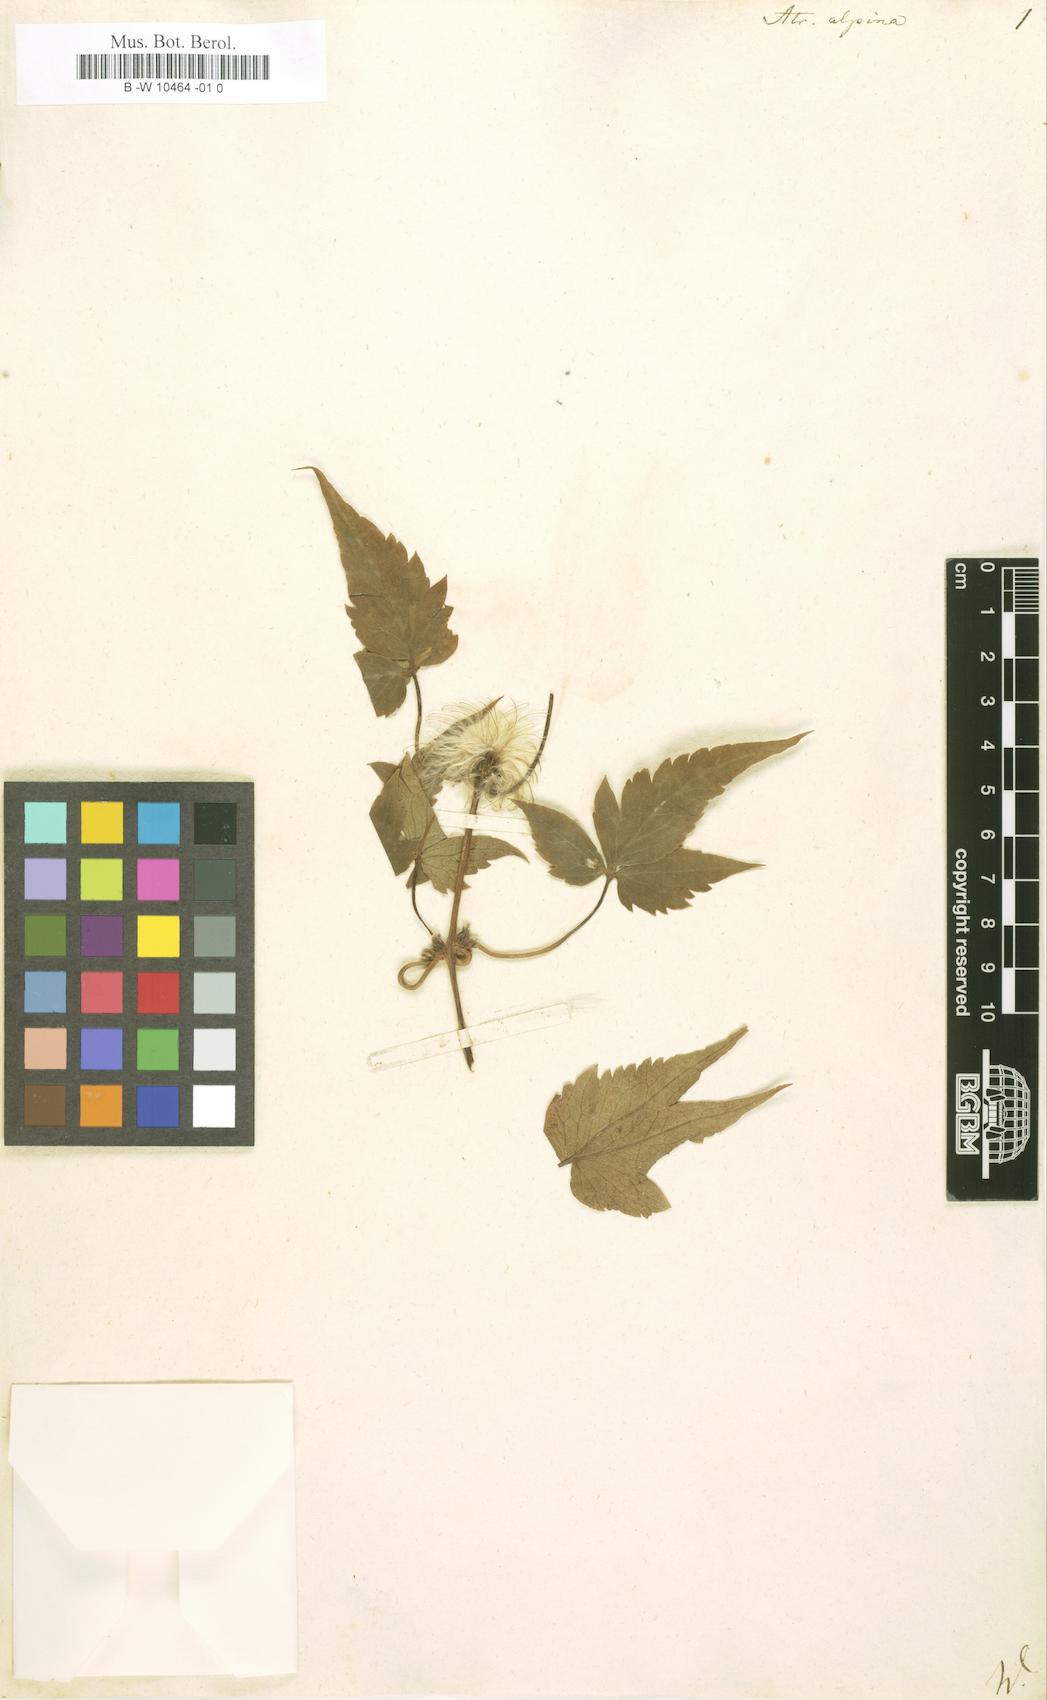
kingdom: Plantae
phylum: Tracheophyta
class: Magnoliopsida
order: Ranunculales
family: Ranunculaceae
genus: Clematis
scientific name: Clematis alpina
